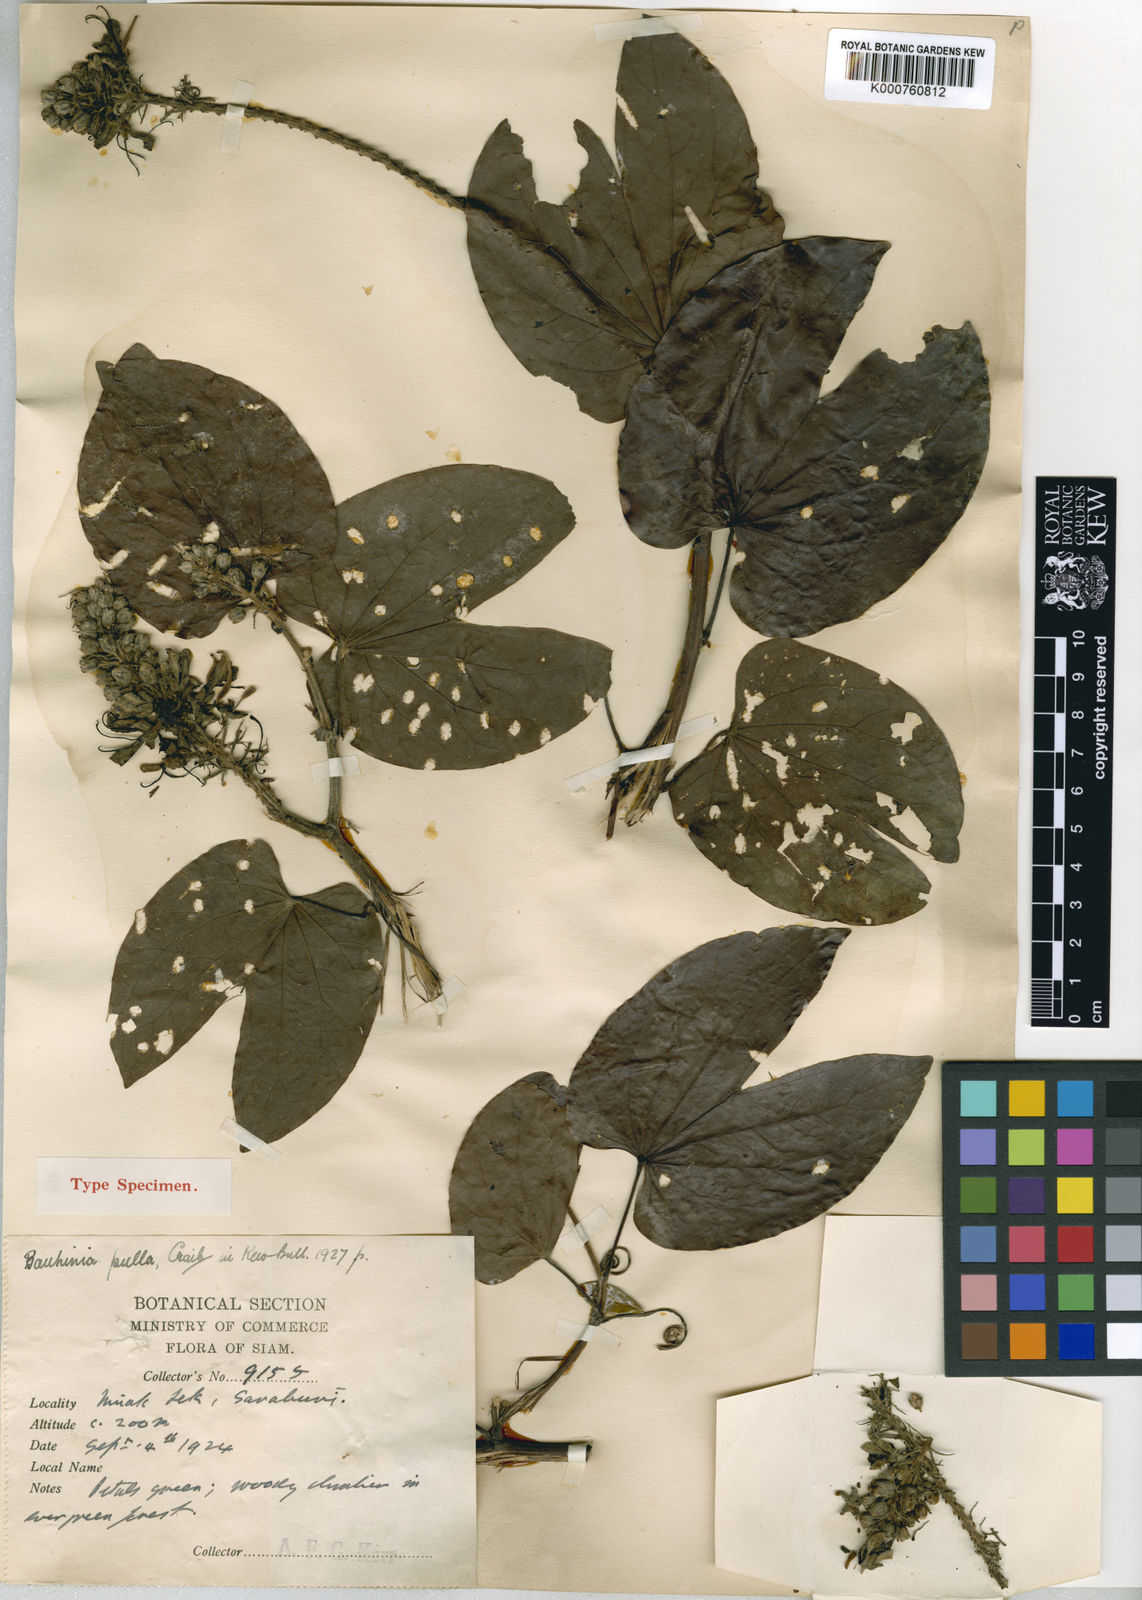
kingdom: Plantae
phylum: Tracheophyta
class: Magnoliopsida
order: Fabales
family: Fabaceae
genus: Phanera
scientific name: Phanera pulla
